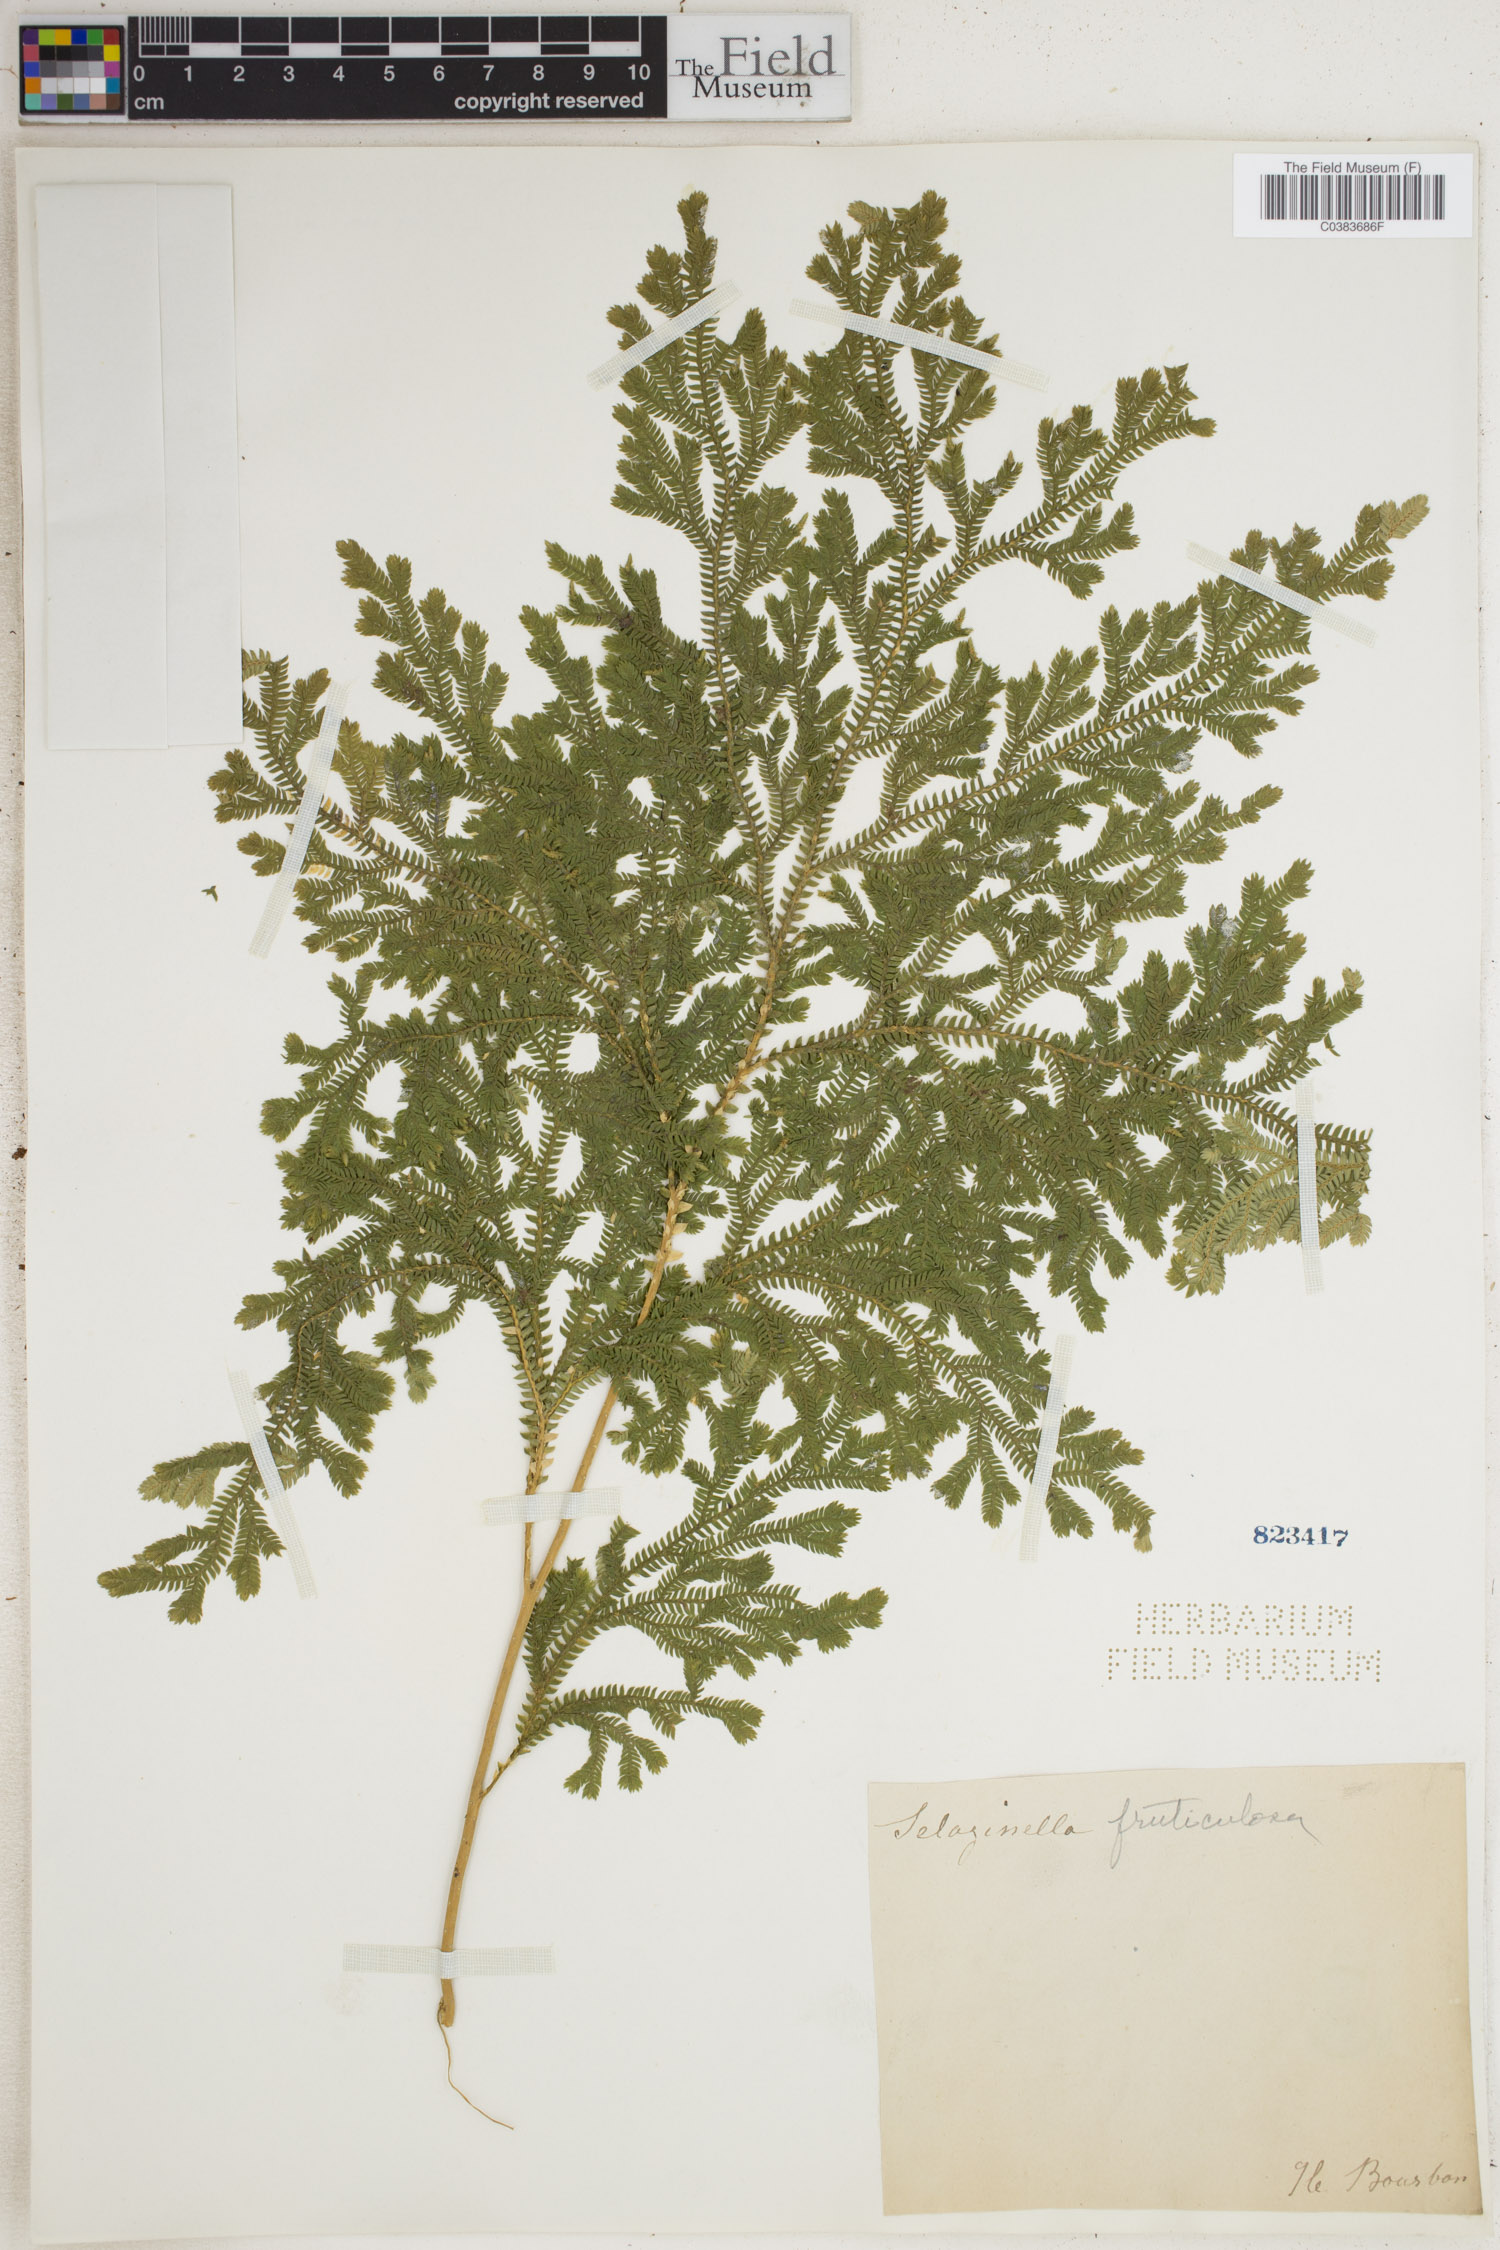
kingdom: Plantae
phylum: Tracheophyta
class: Lycopodiopsida
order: Selaginellales
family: Selaginellaceae
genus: Selaginella
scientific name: Selaginella fruticulosa
